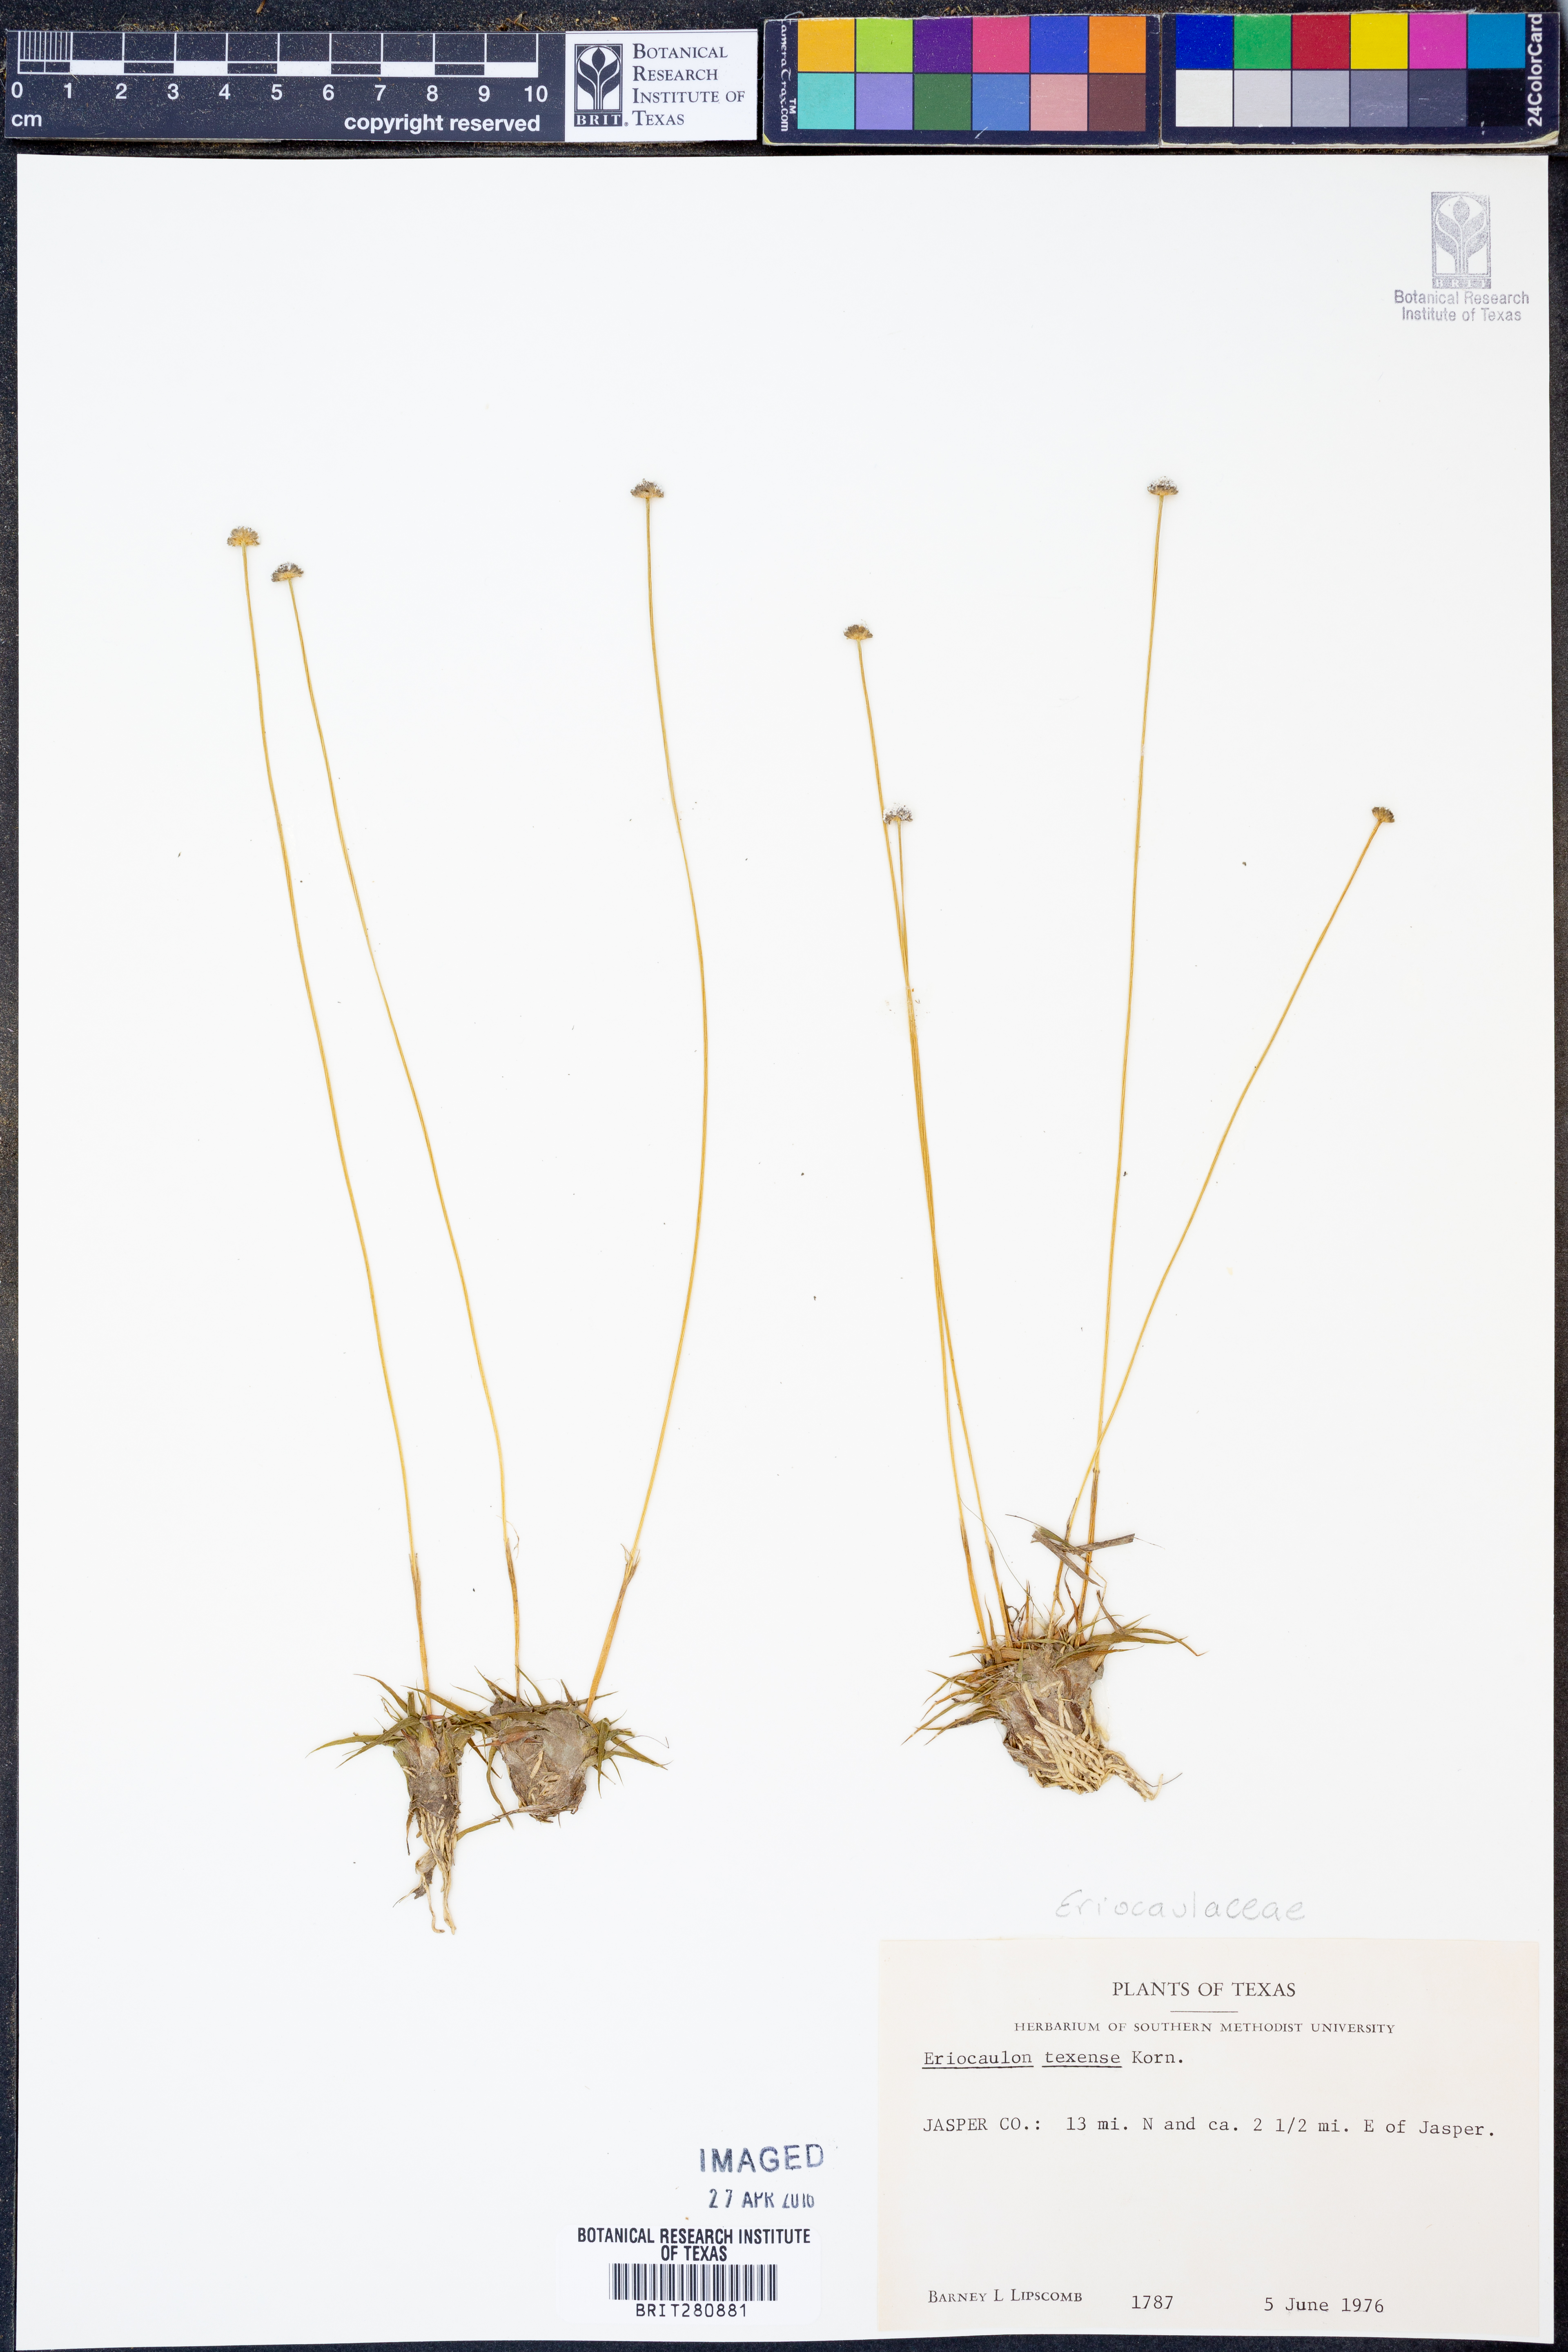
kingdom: Plantae
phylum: Tracheophyta
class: Liliopsida
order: Poales
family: Eriocaulaceae
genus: Eriocaulon
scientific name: Eriocaulon texense
